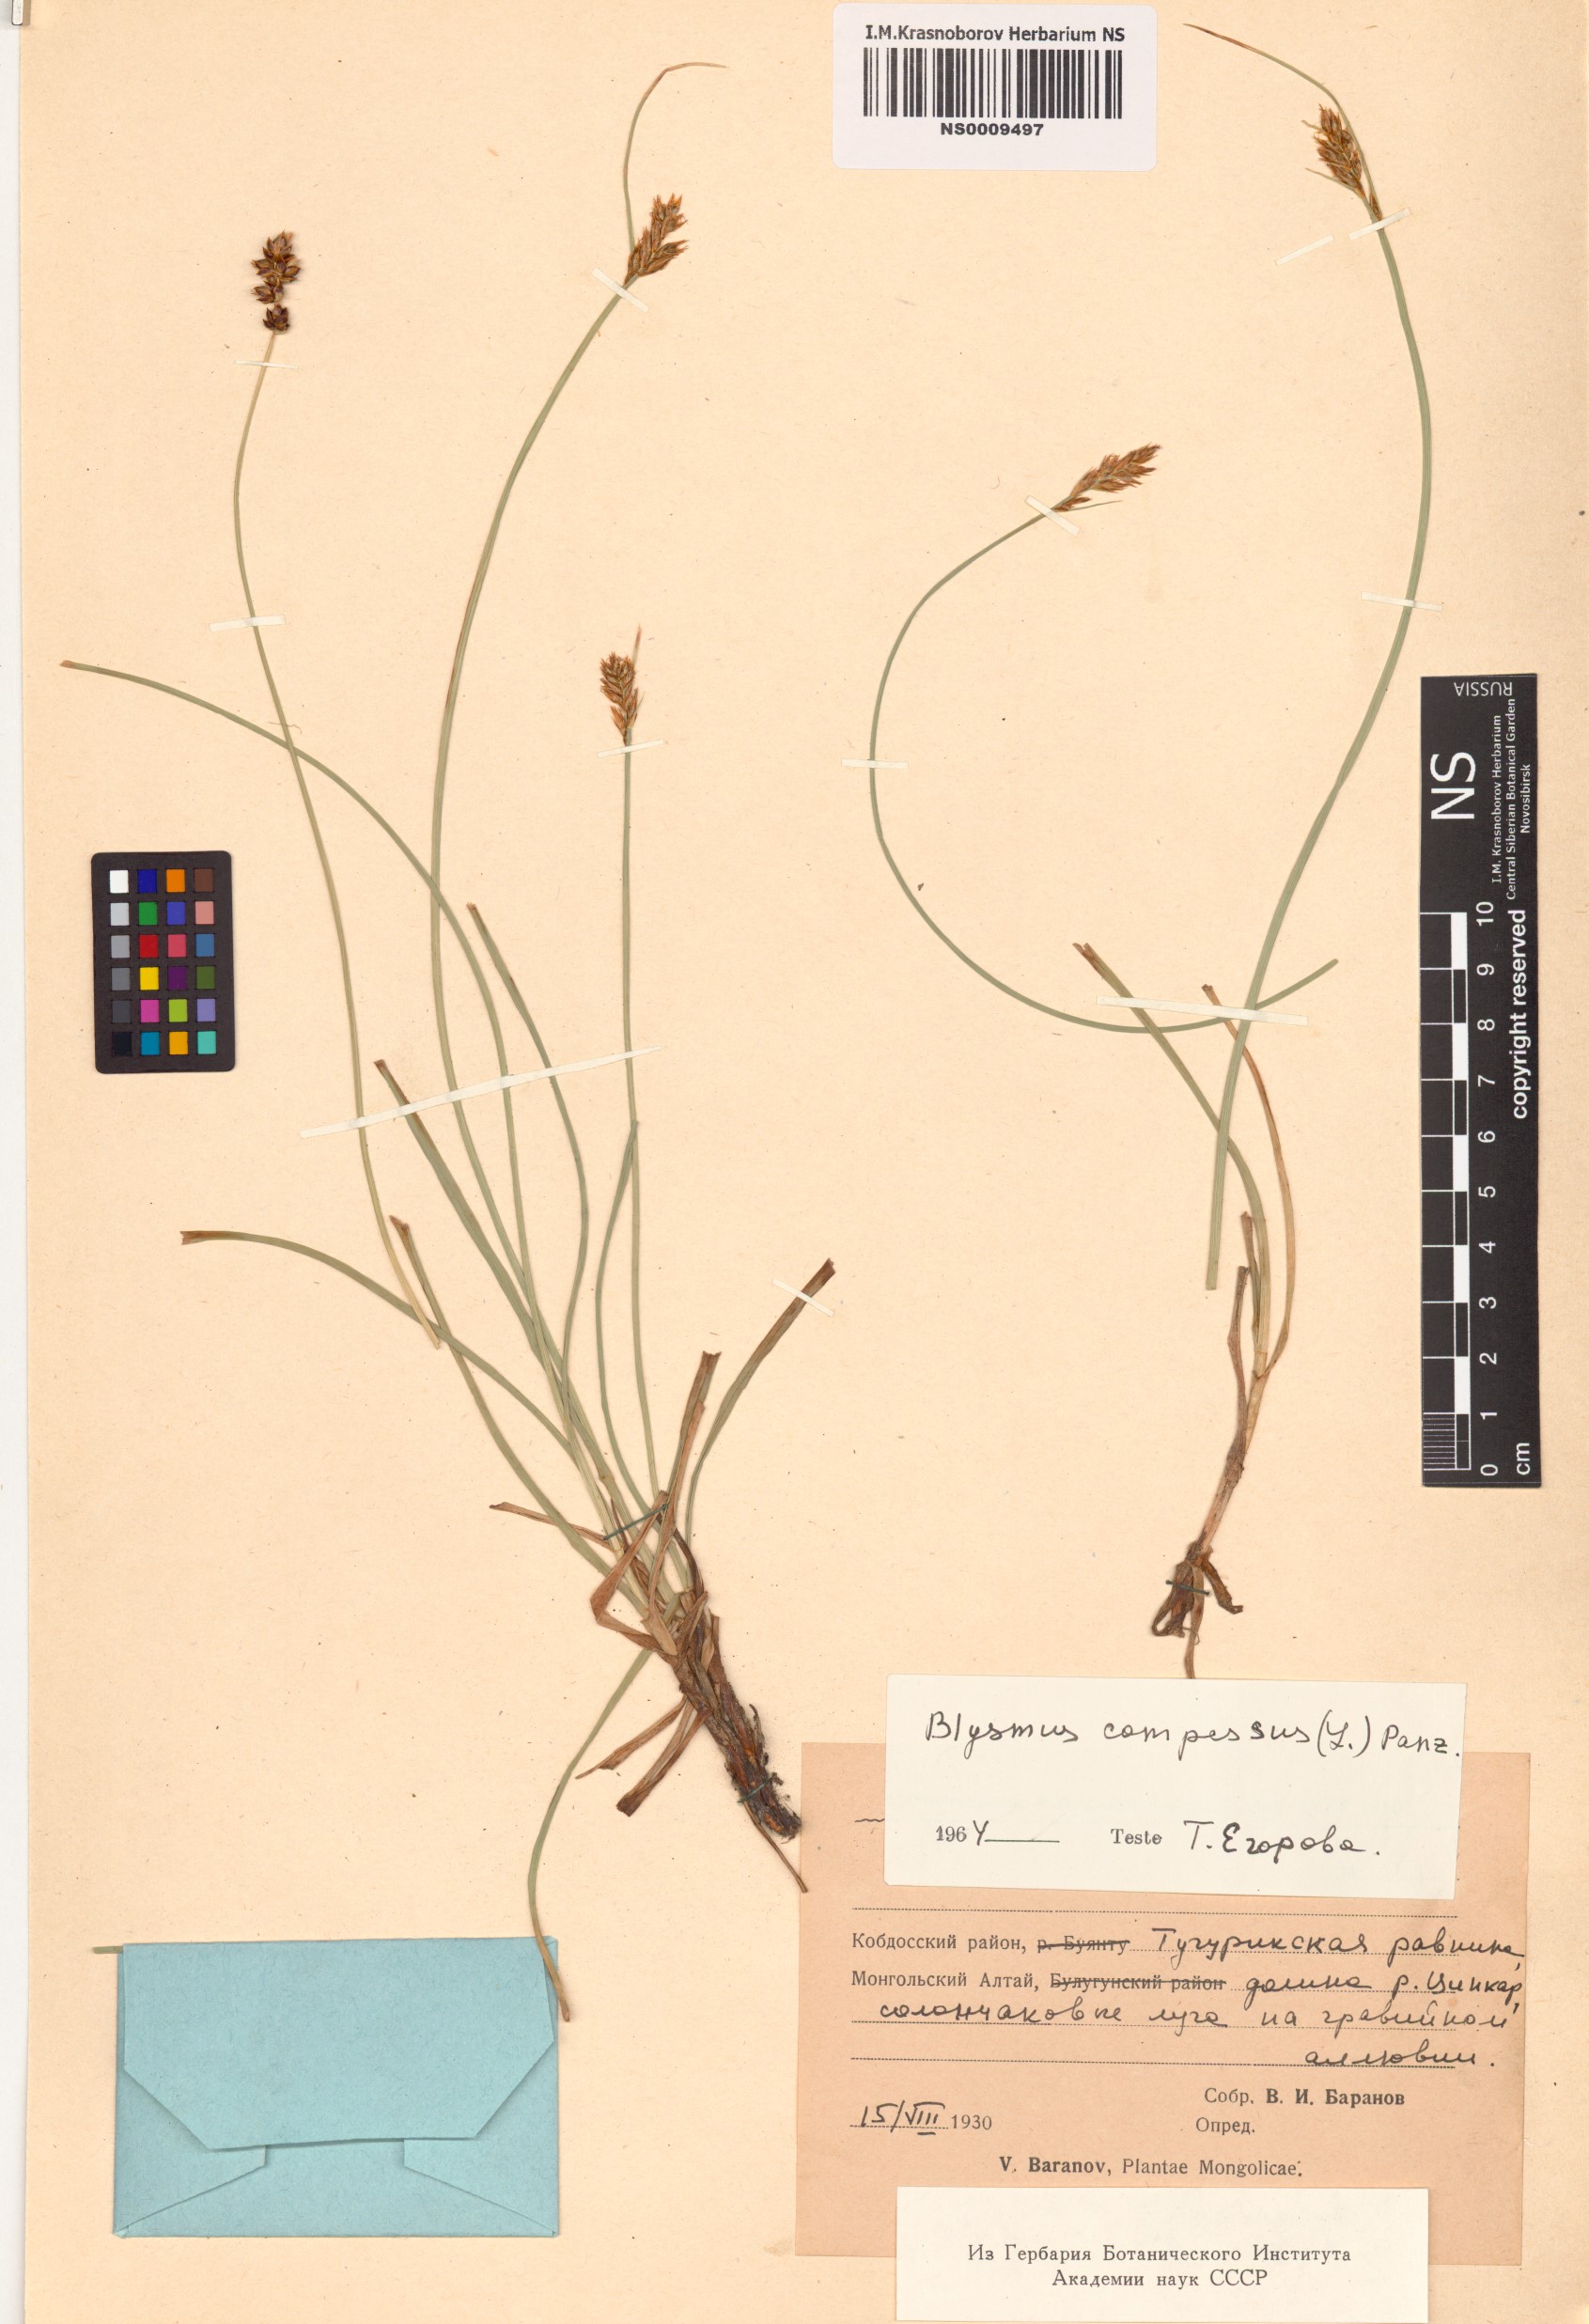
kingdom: Plantae
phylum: Tracheophyta
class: Liliopsida
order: Poales
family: Cyperaceae
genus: Blysmus
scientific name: Blysmus compressus
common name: Flat-sedge
